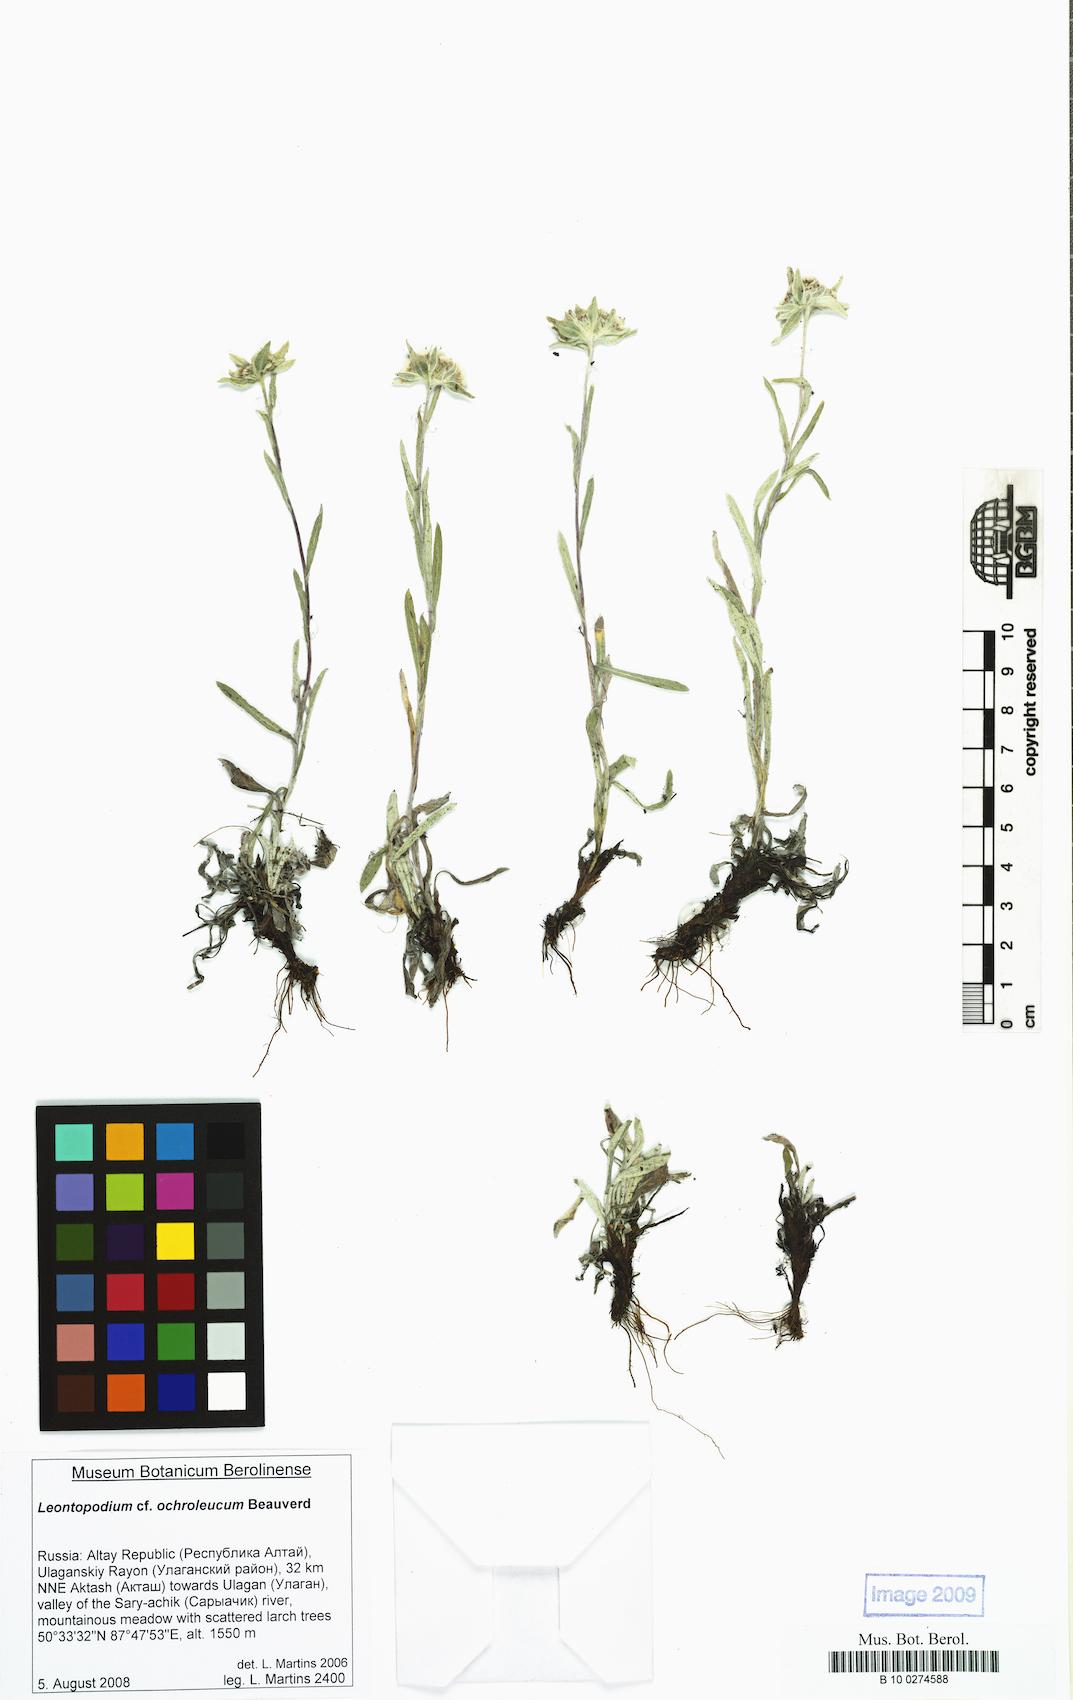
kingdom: Plantae
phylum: Tracheophyta
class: Magnoliopsida
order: Asterales
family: Asteraceae
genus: Leontopodium
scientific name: Leontopodium leontopodinum
